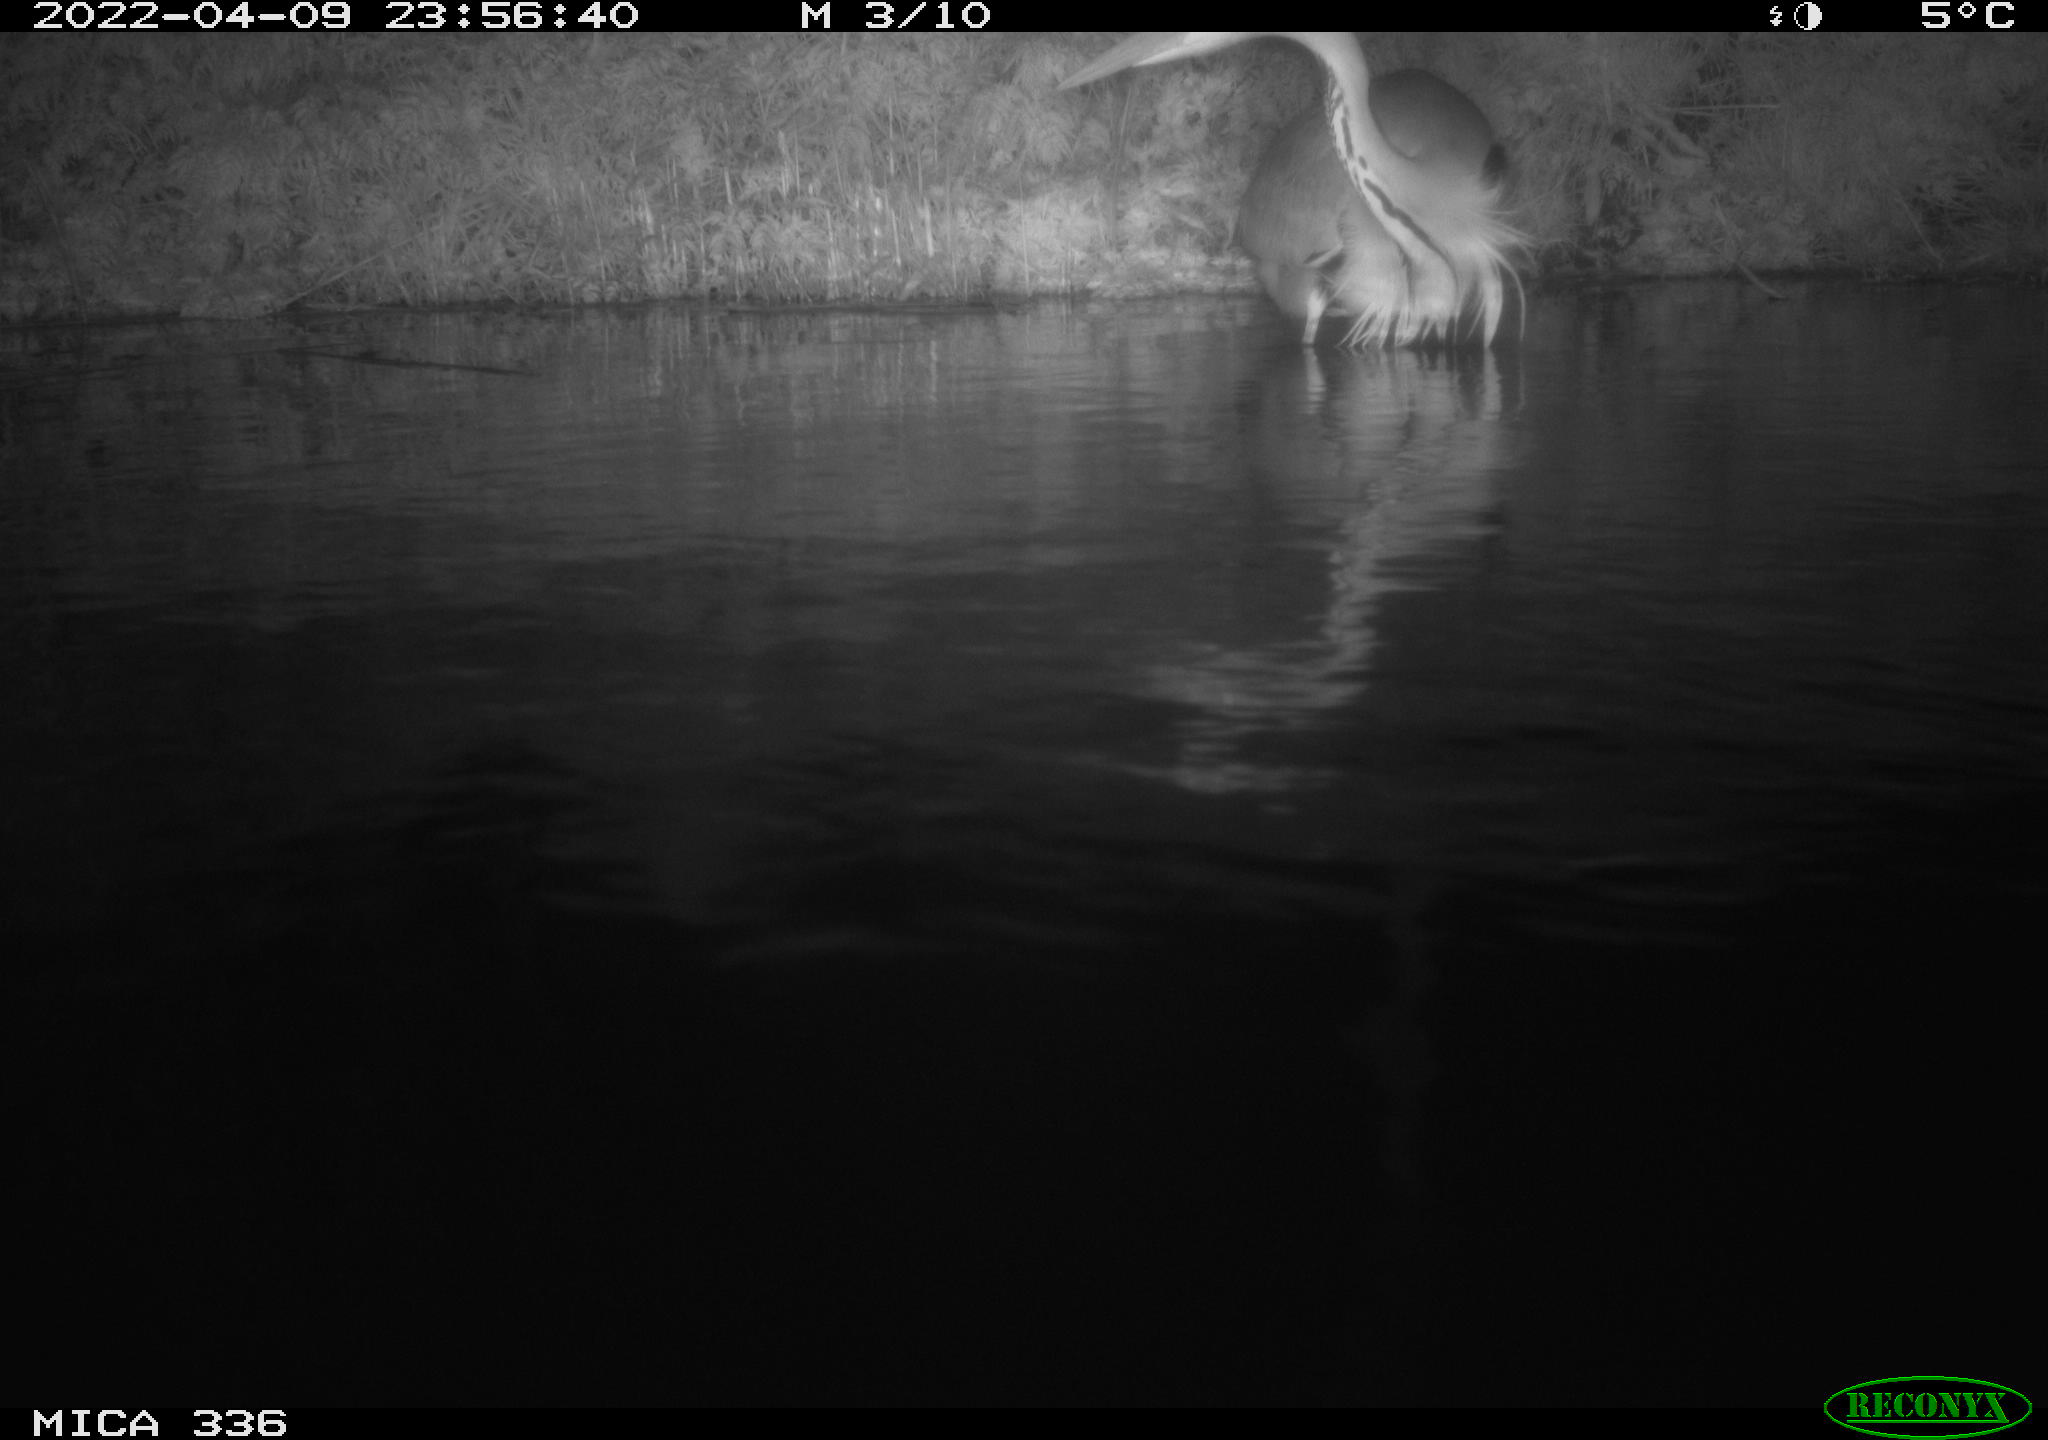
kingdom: Animalia
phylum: Chordata
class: Aves
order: Pelecaniformes
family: Ardeidae
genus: Ardea
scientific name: Ardea cinerea
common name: Grey heron
